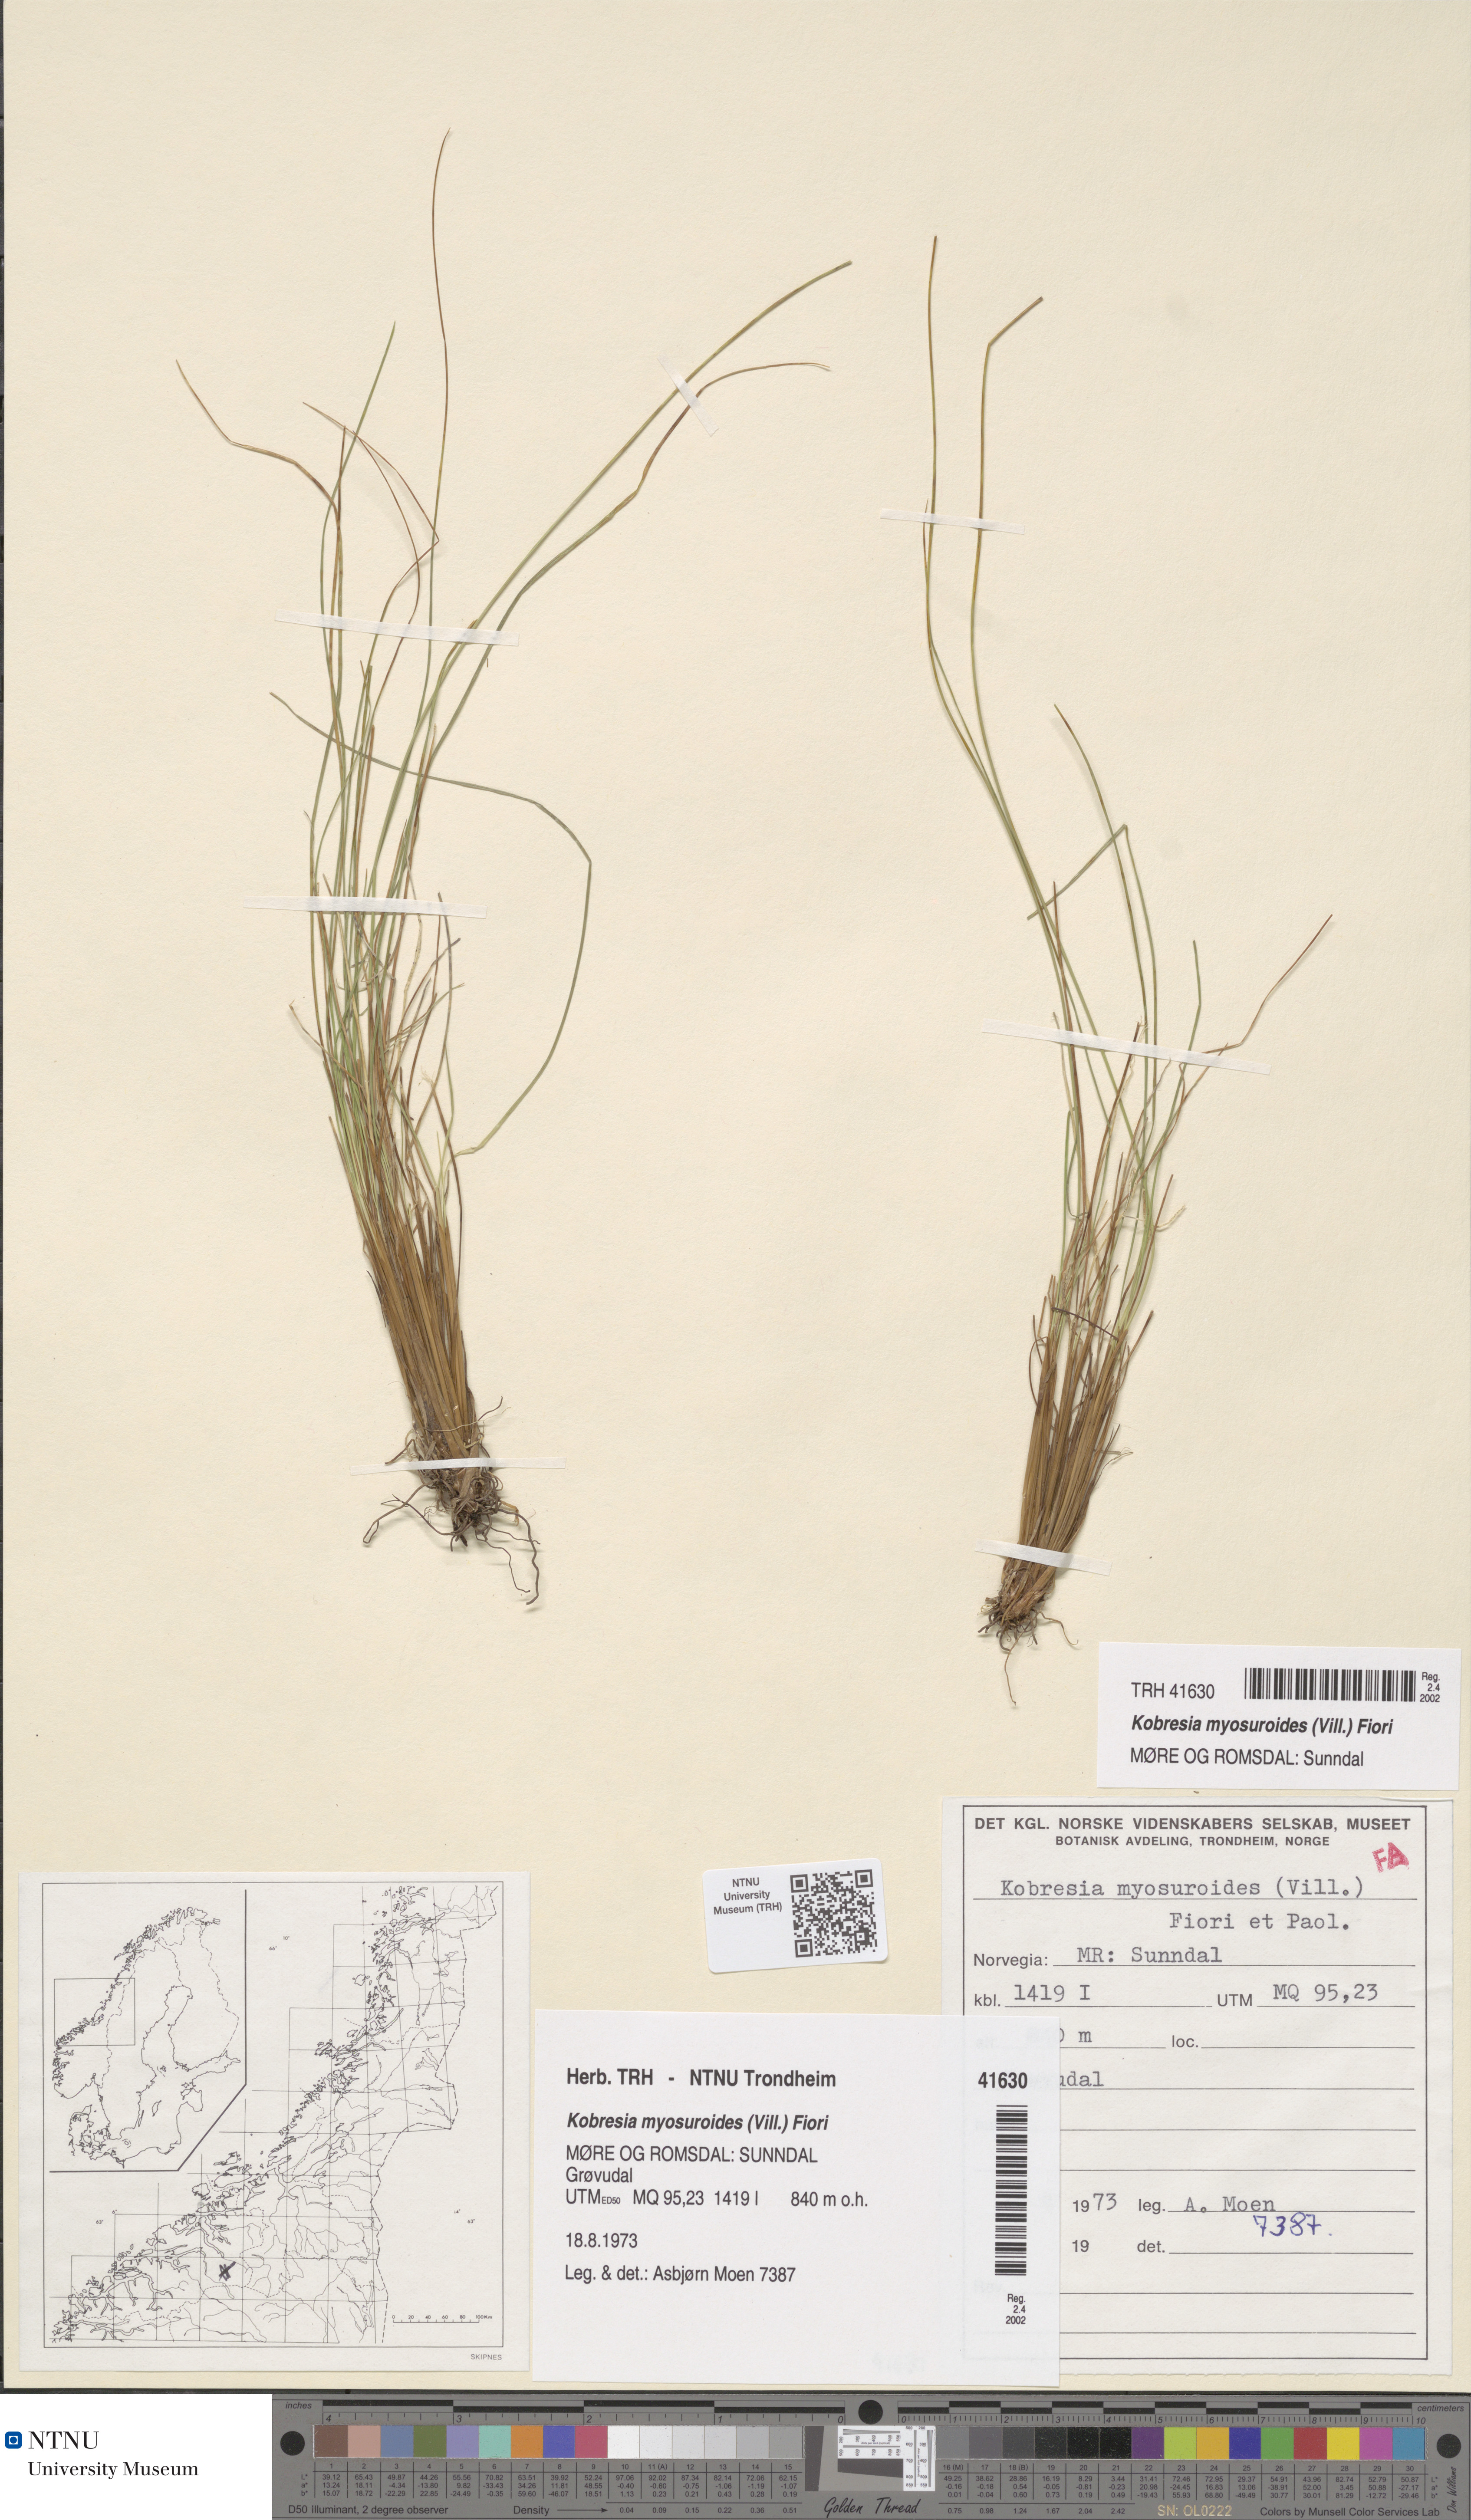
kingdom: Plantae
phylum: Tracheophyta
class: Liliopsida
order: Poales
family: Cyperaceae
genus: Carex
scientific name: Carex myosuroides
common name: Bellard's bog sedge
